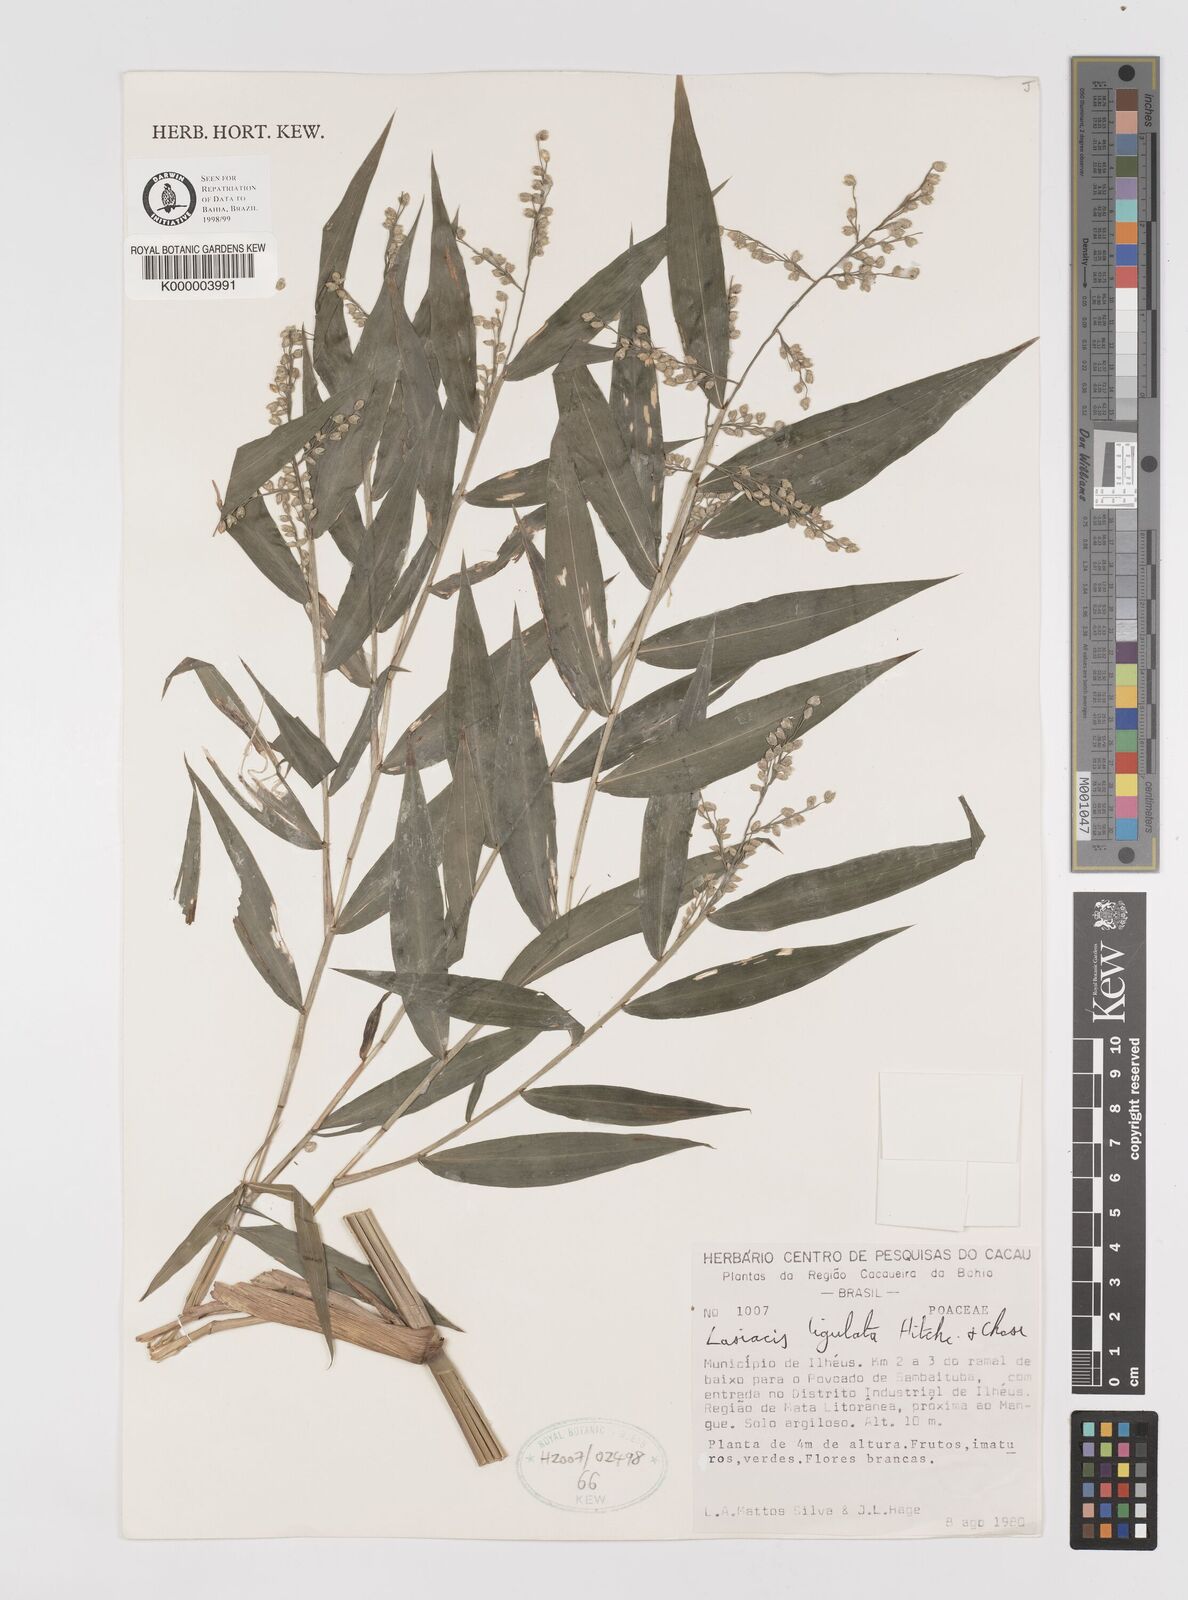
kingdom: Plantae
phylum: Tracheophyta
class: Liliopsida
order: Poales
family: Poaceae
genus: Lasiacis
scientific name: Lasiacis ligulata
